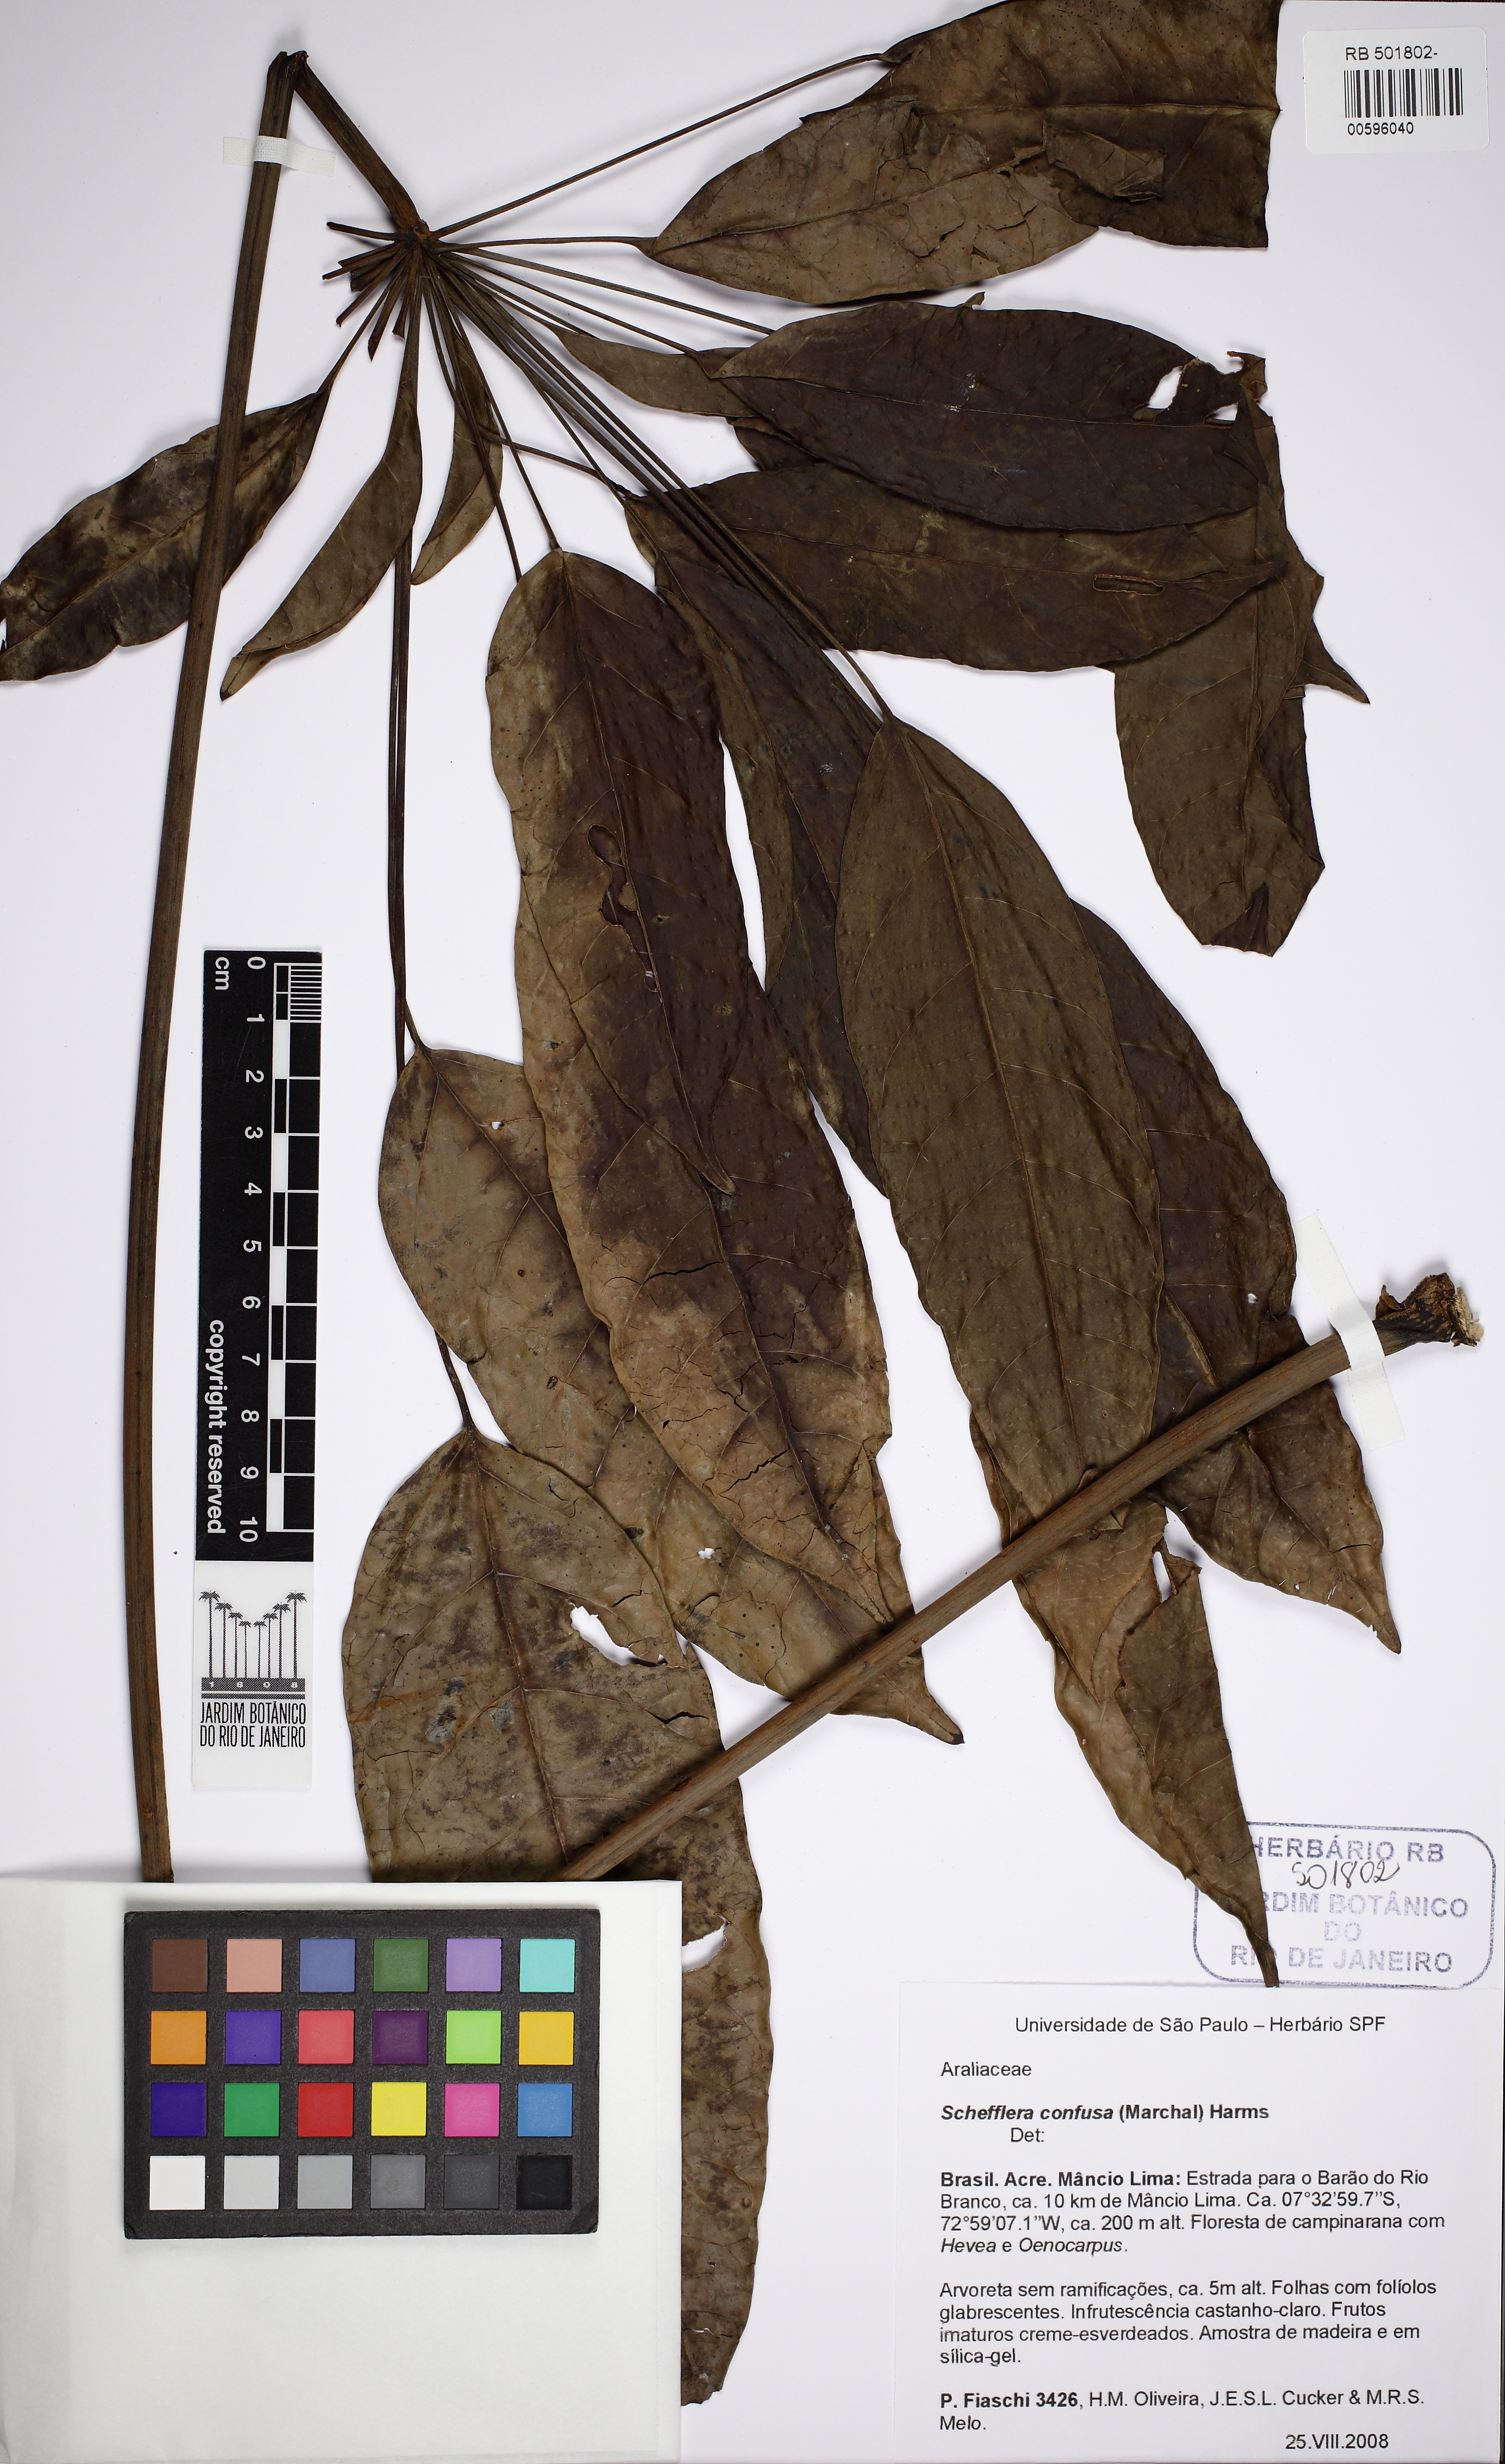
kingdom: Plantae
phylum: Tracheophyta
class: Magnoliopsida
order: Apiales
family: Araliaceae
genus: Didymopanax
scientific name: Didymopanax confusus
